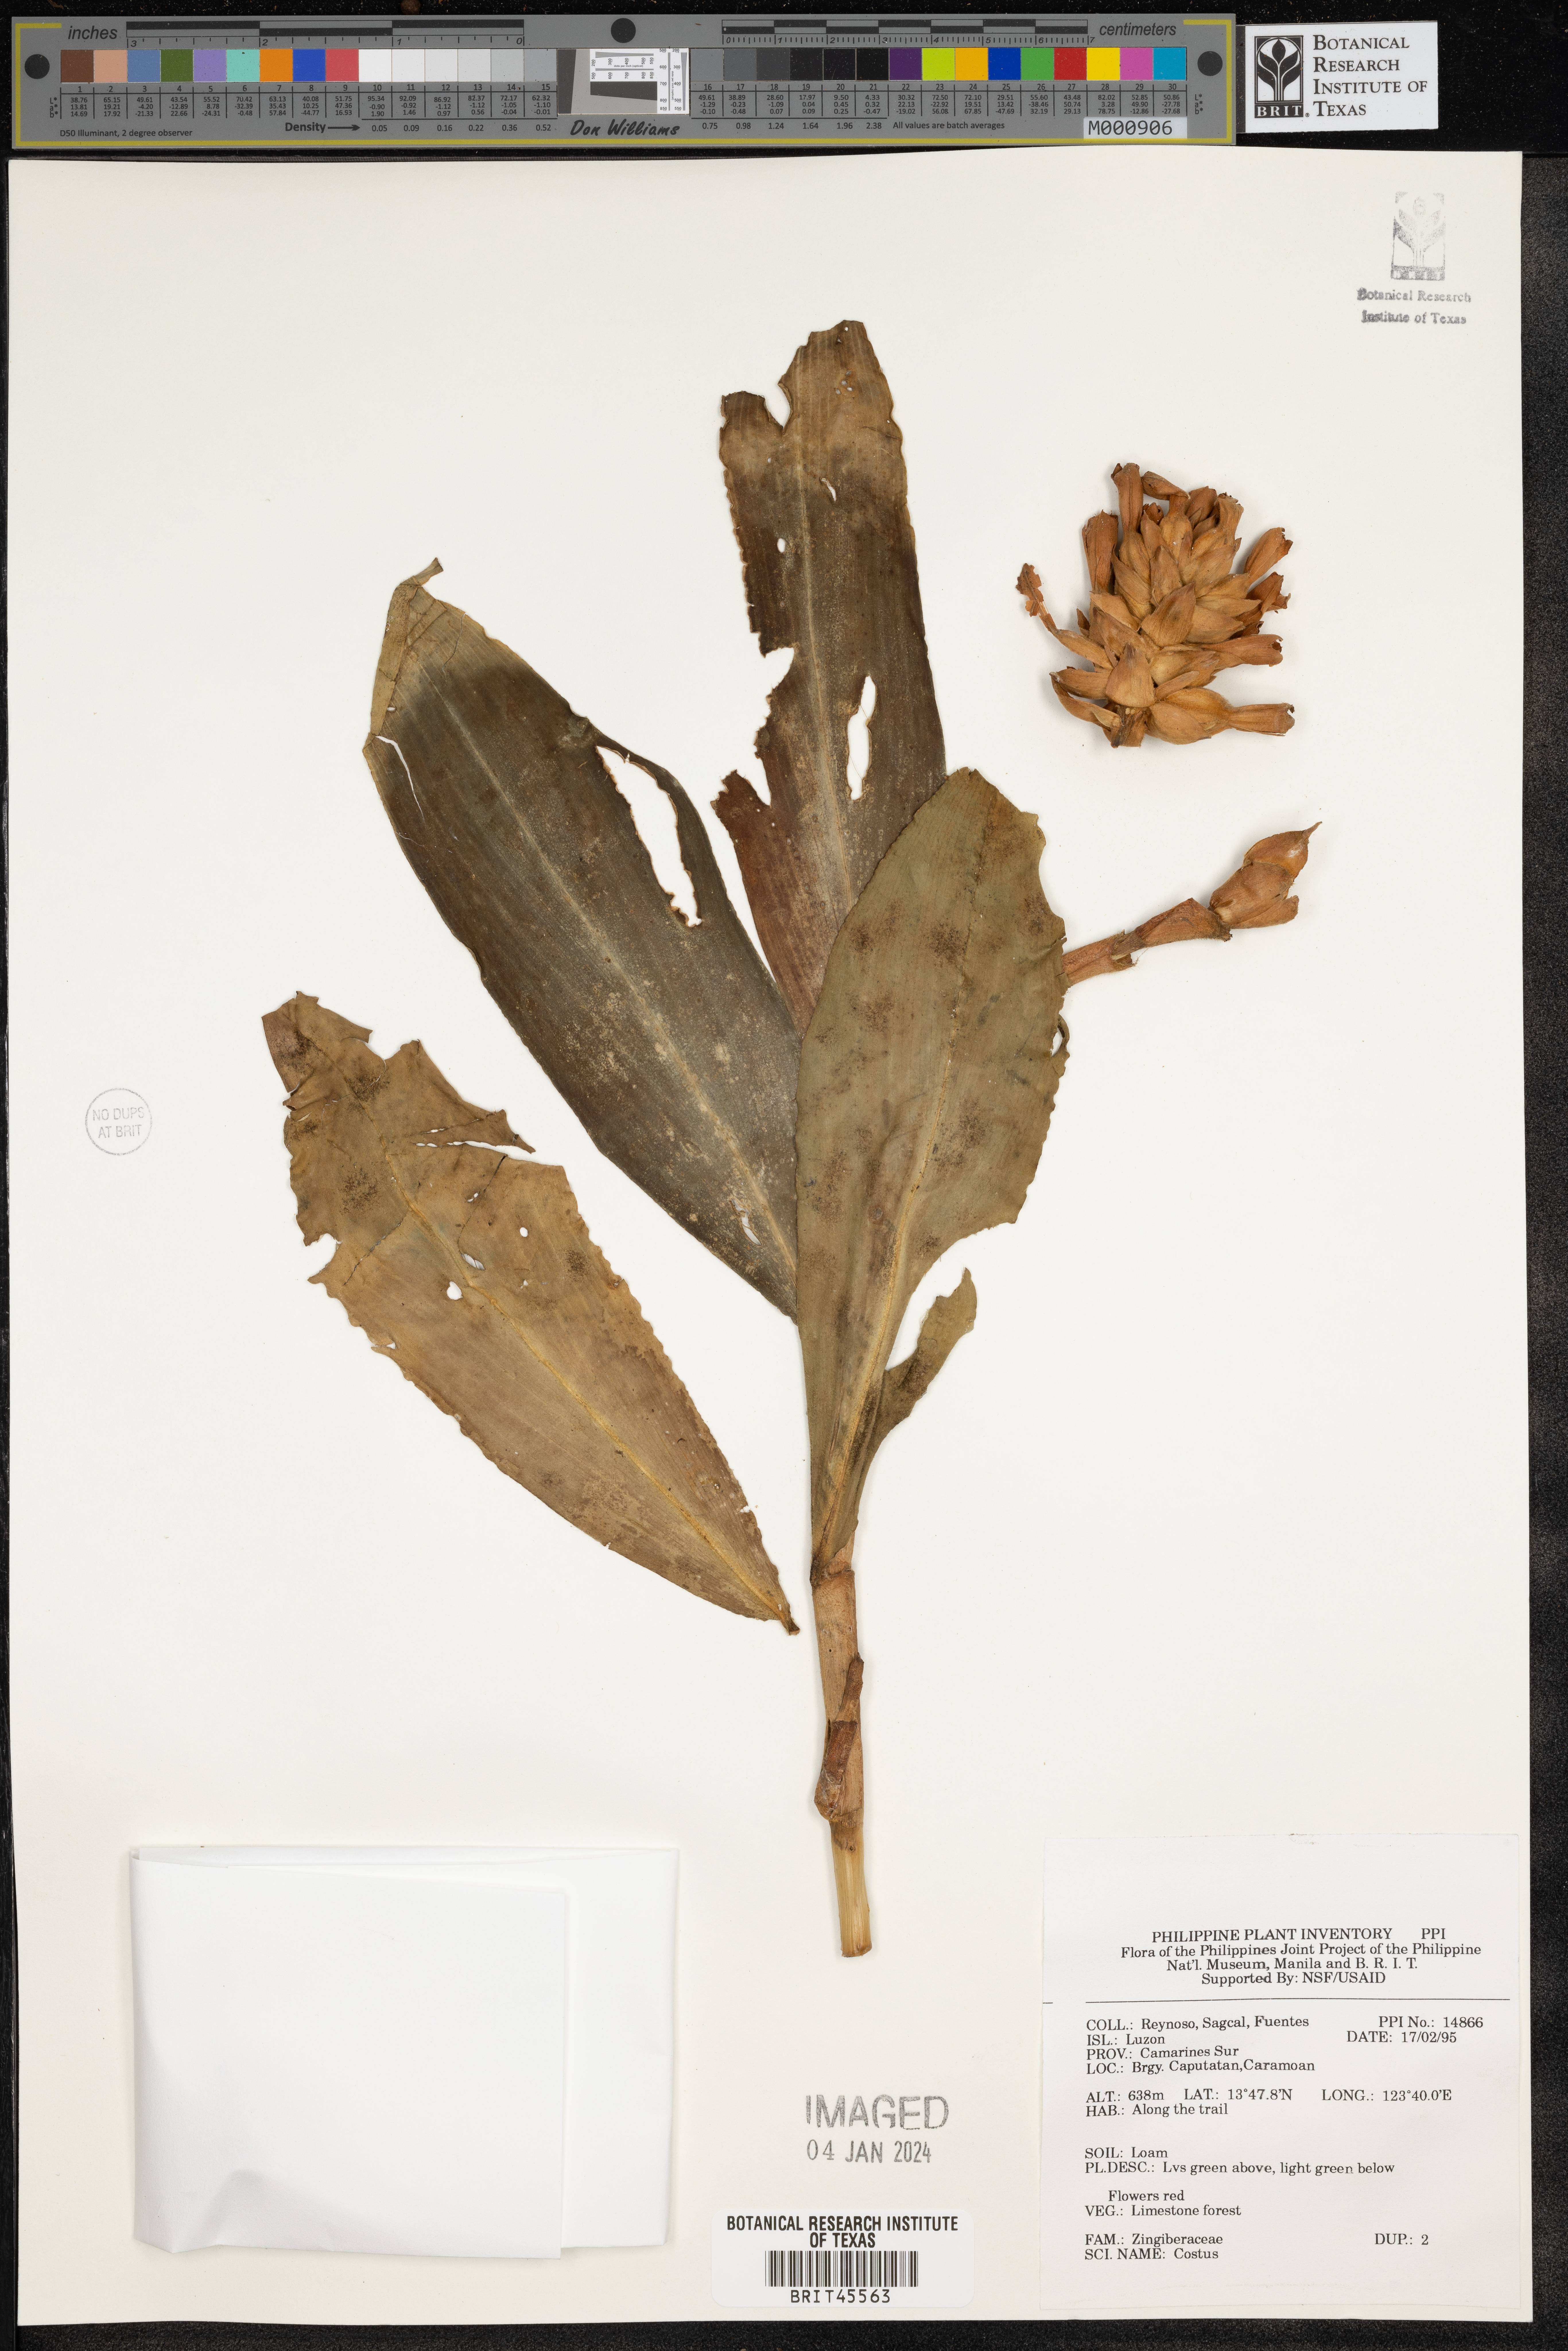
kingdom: Plantae
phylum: Tracheophyta
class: Liliopsida
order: Zingiberales
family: Costaceae
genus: Costus
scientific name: Costus
